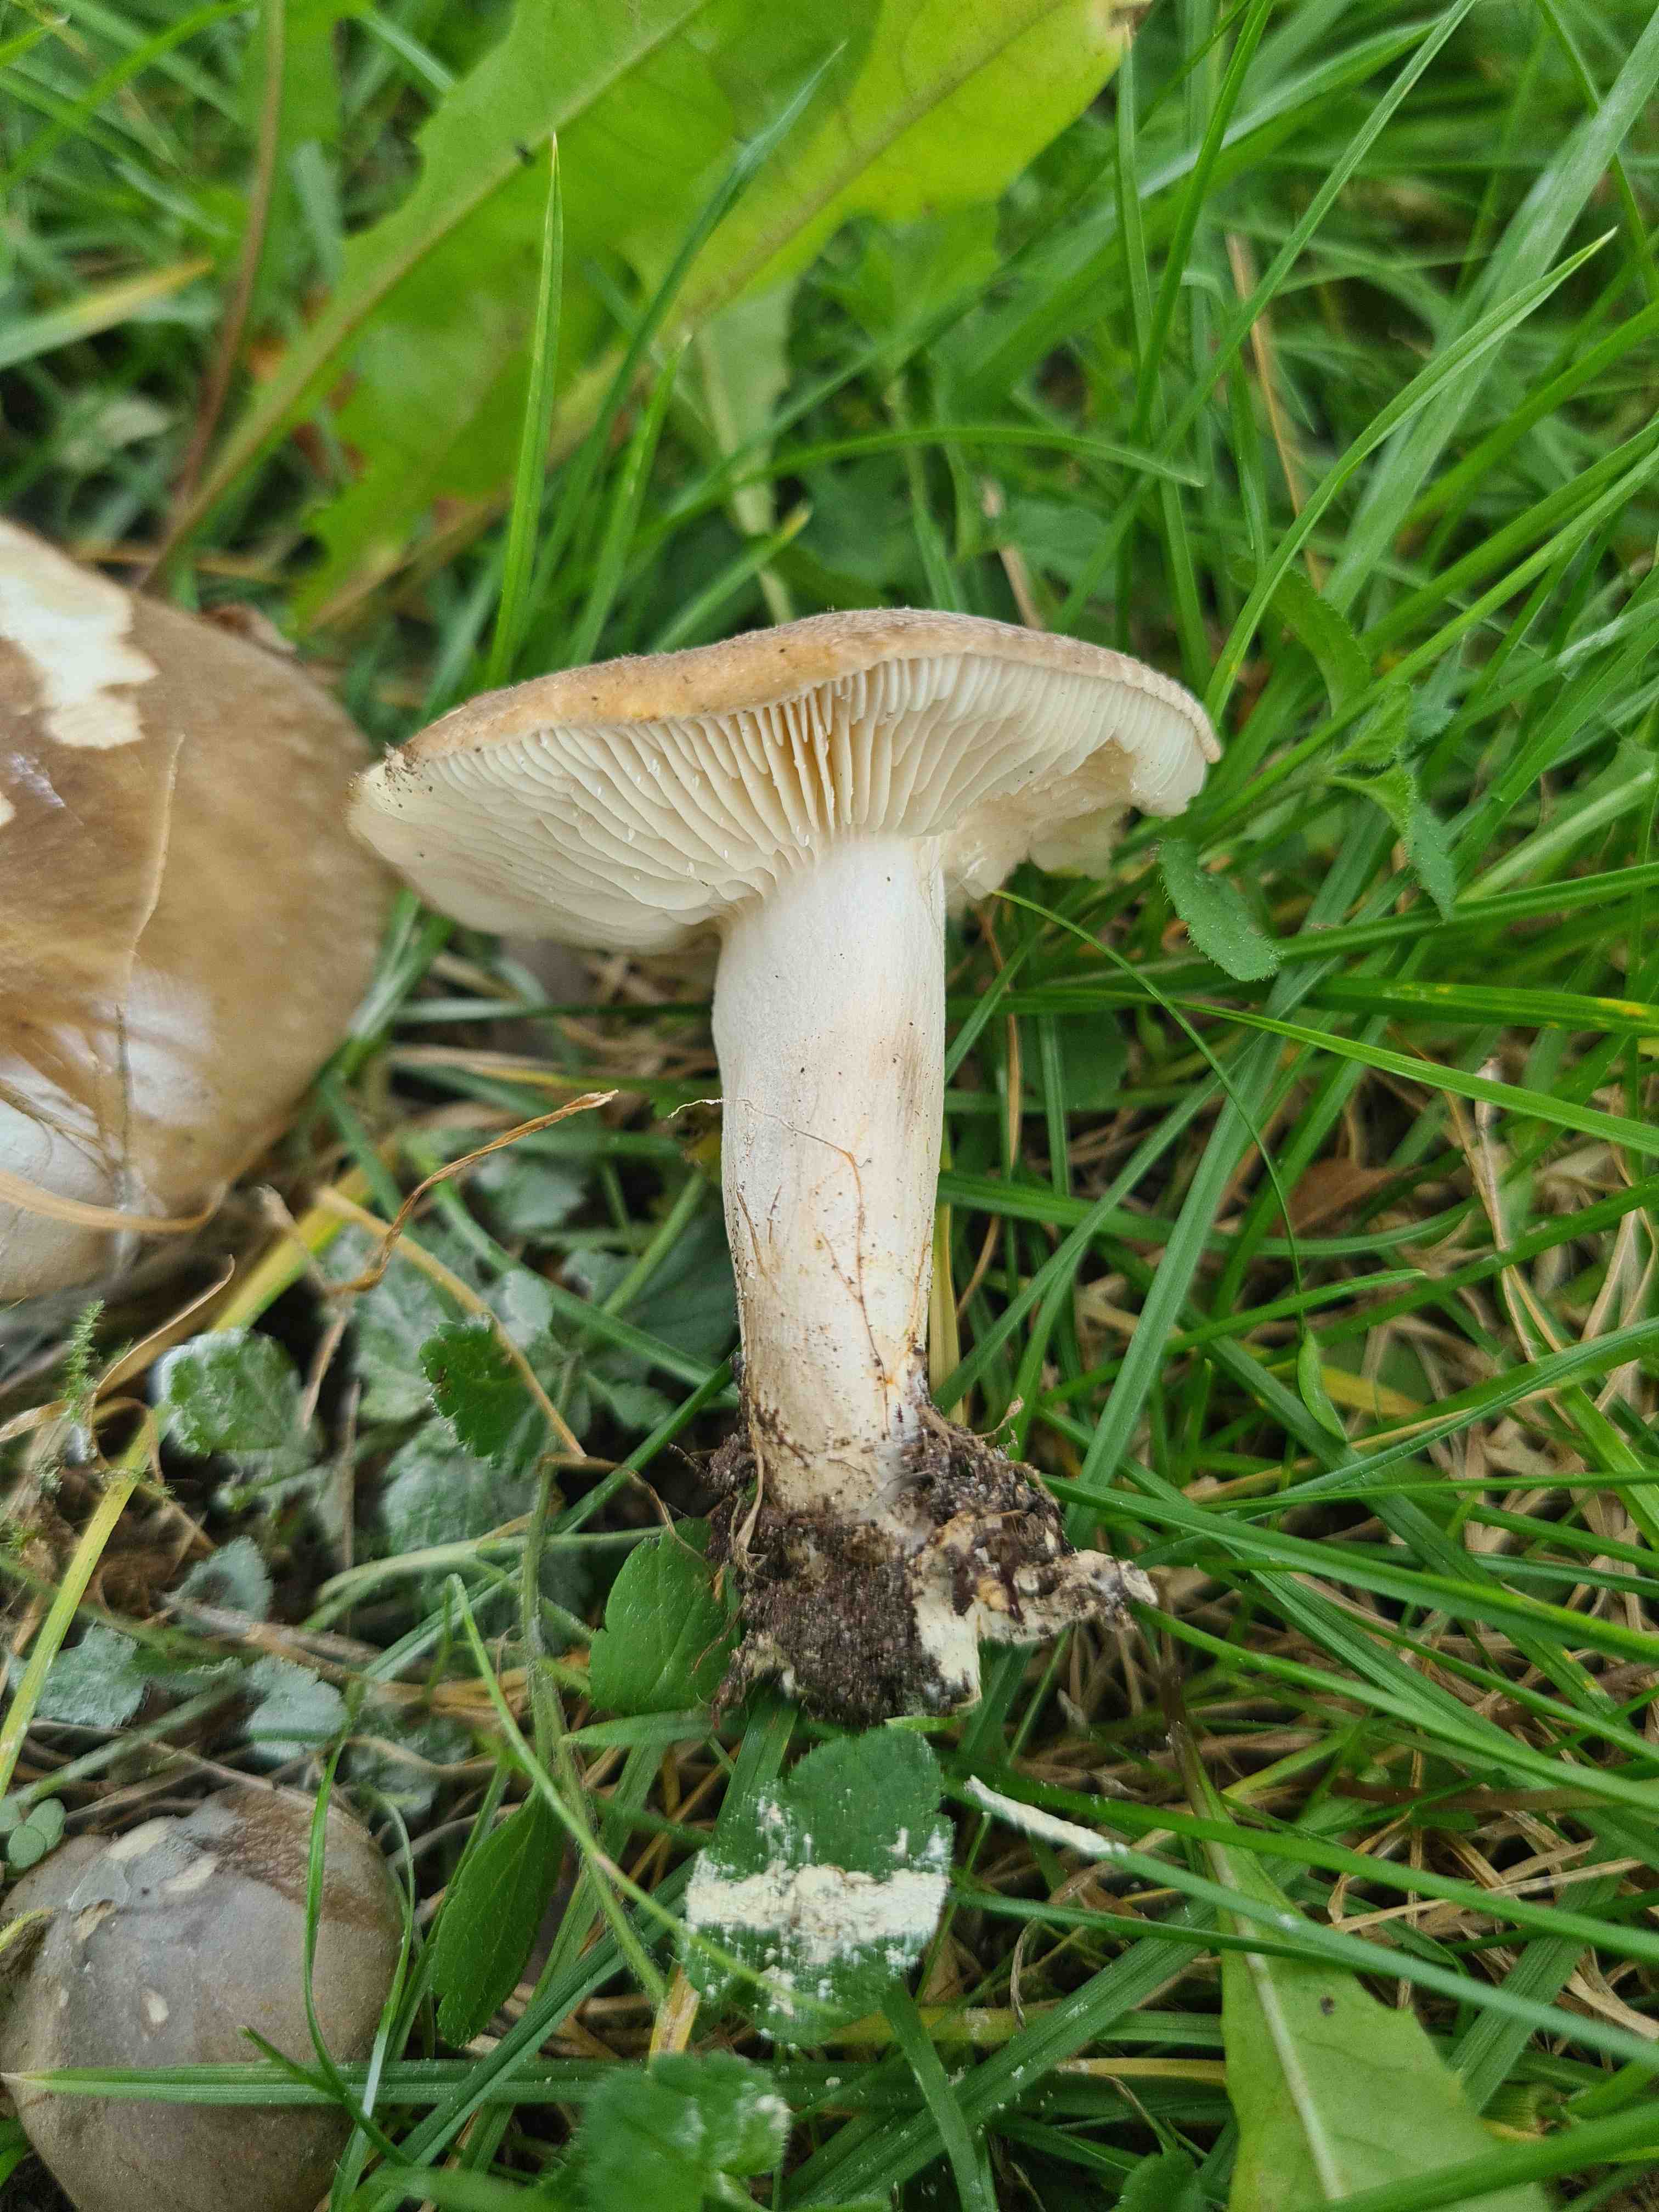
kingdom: Fungi
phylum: Basidiomycota
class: Agaricomycetes
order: Agaricales
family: Lyophyllaceae
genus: Lyophyllum
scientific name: Lyophyllum decastes
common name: røggrå gråblad
